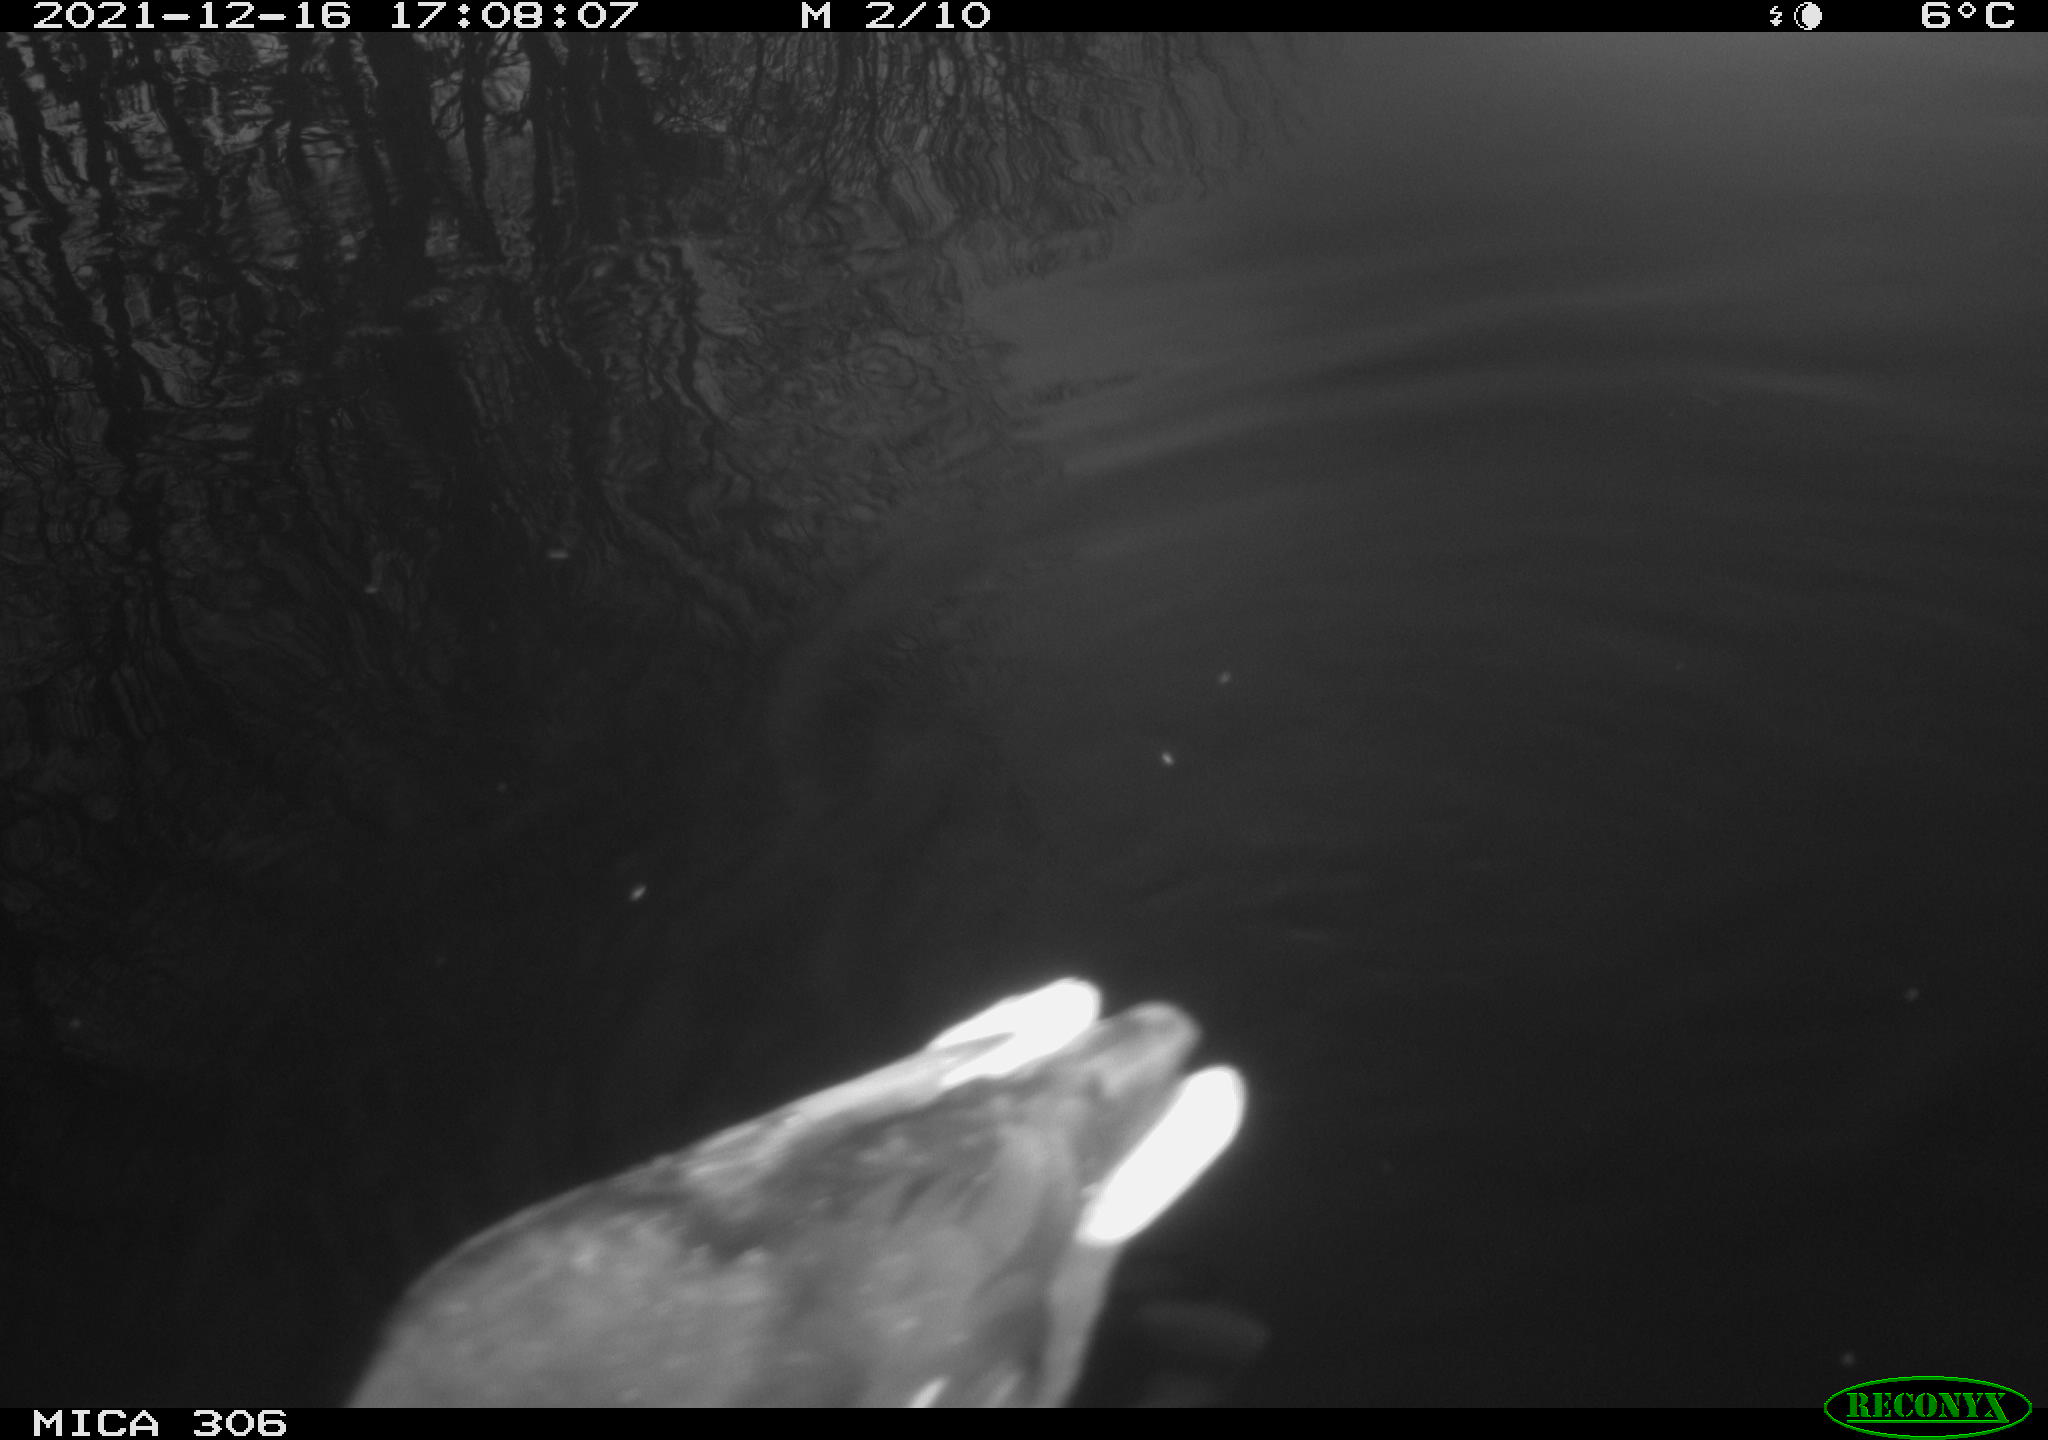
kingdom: Animalia
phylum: Chordata
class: Aves
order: Gruiformes
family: Rallidae
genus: Gallinula
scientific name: Gallinula chloropus
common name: Common moorhen
